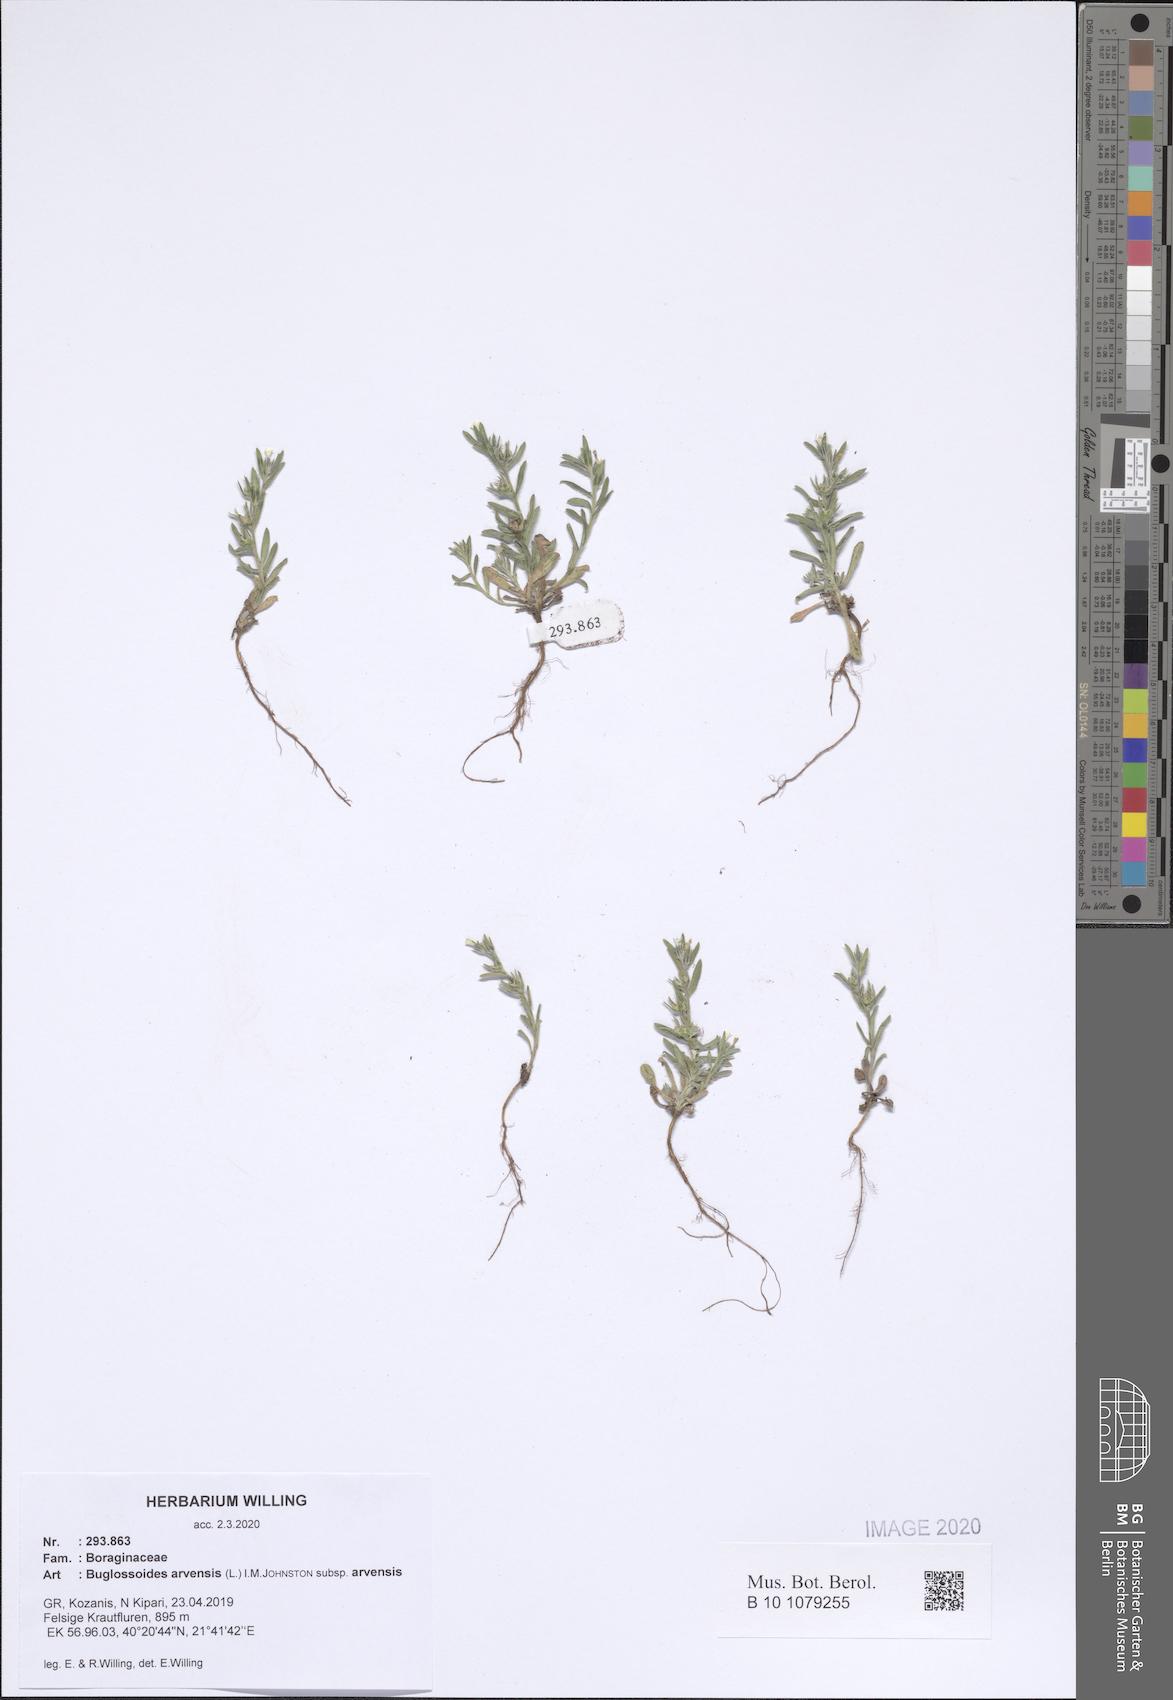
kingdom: Plantae
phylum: Tracheophyta
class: Magnoliopsida
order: Boraginales
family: Boraginaceae
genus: Buglossoides
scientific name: Buglossoides arvensis
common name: Corn gromwell
